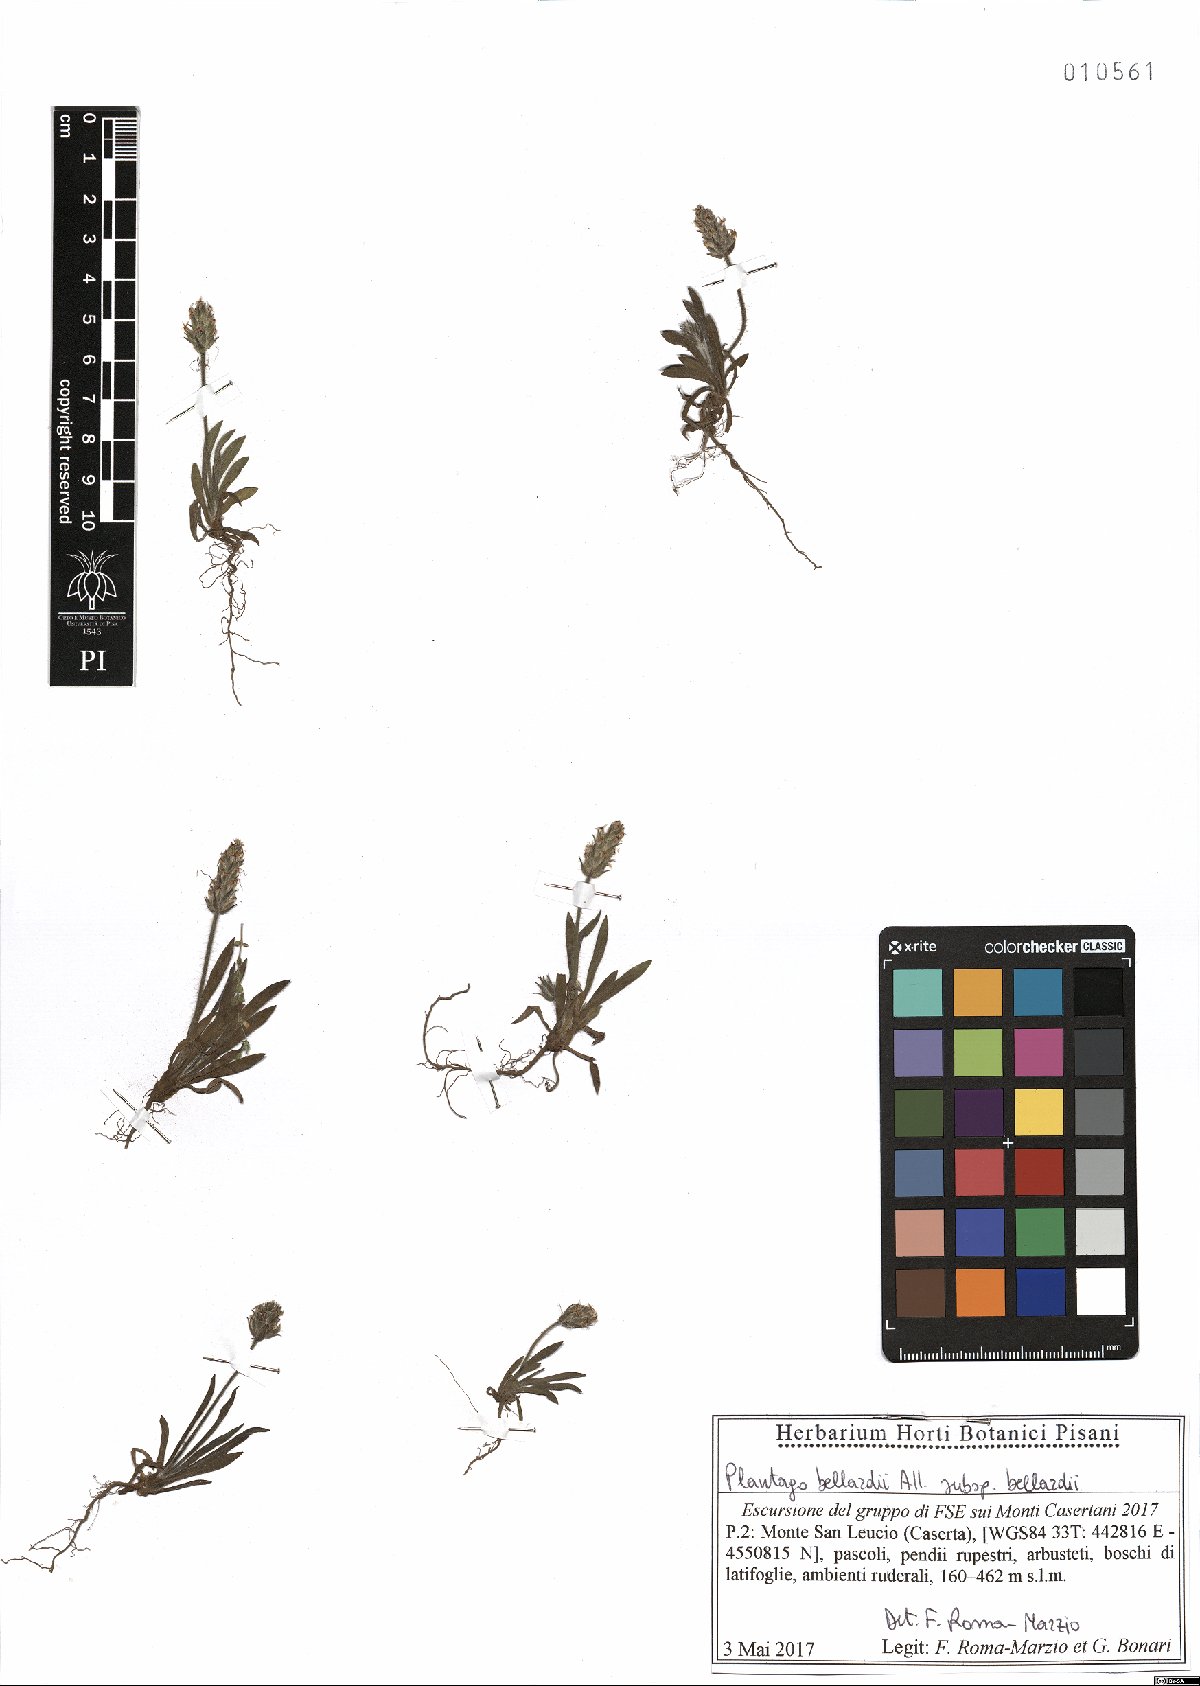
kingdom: Plantae
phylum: Tracheophyta
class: Magnoliopsida
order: Lamiales
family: Plantaginaceae
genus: Plantago
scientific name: Plantago bellardii
